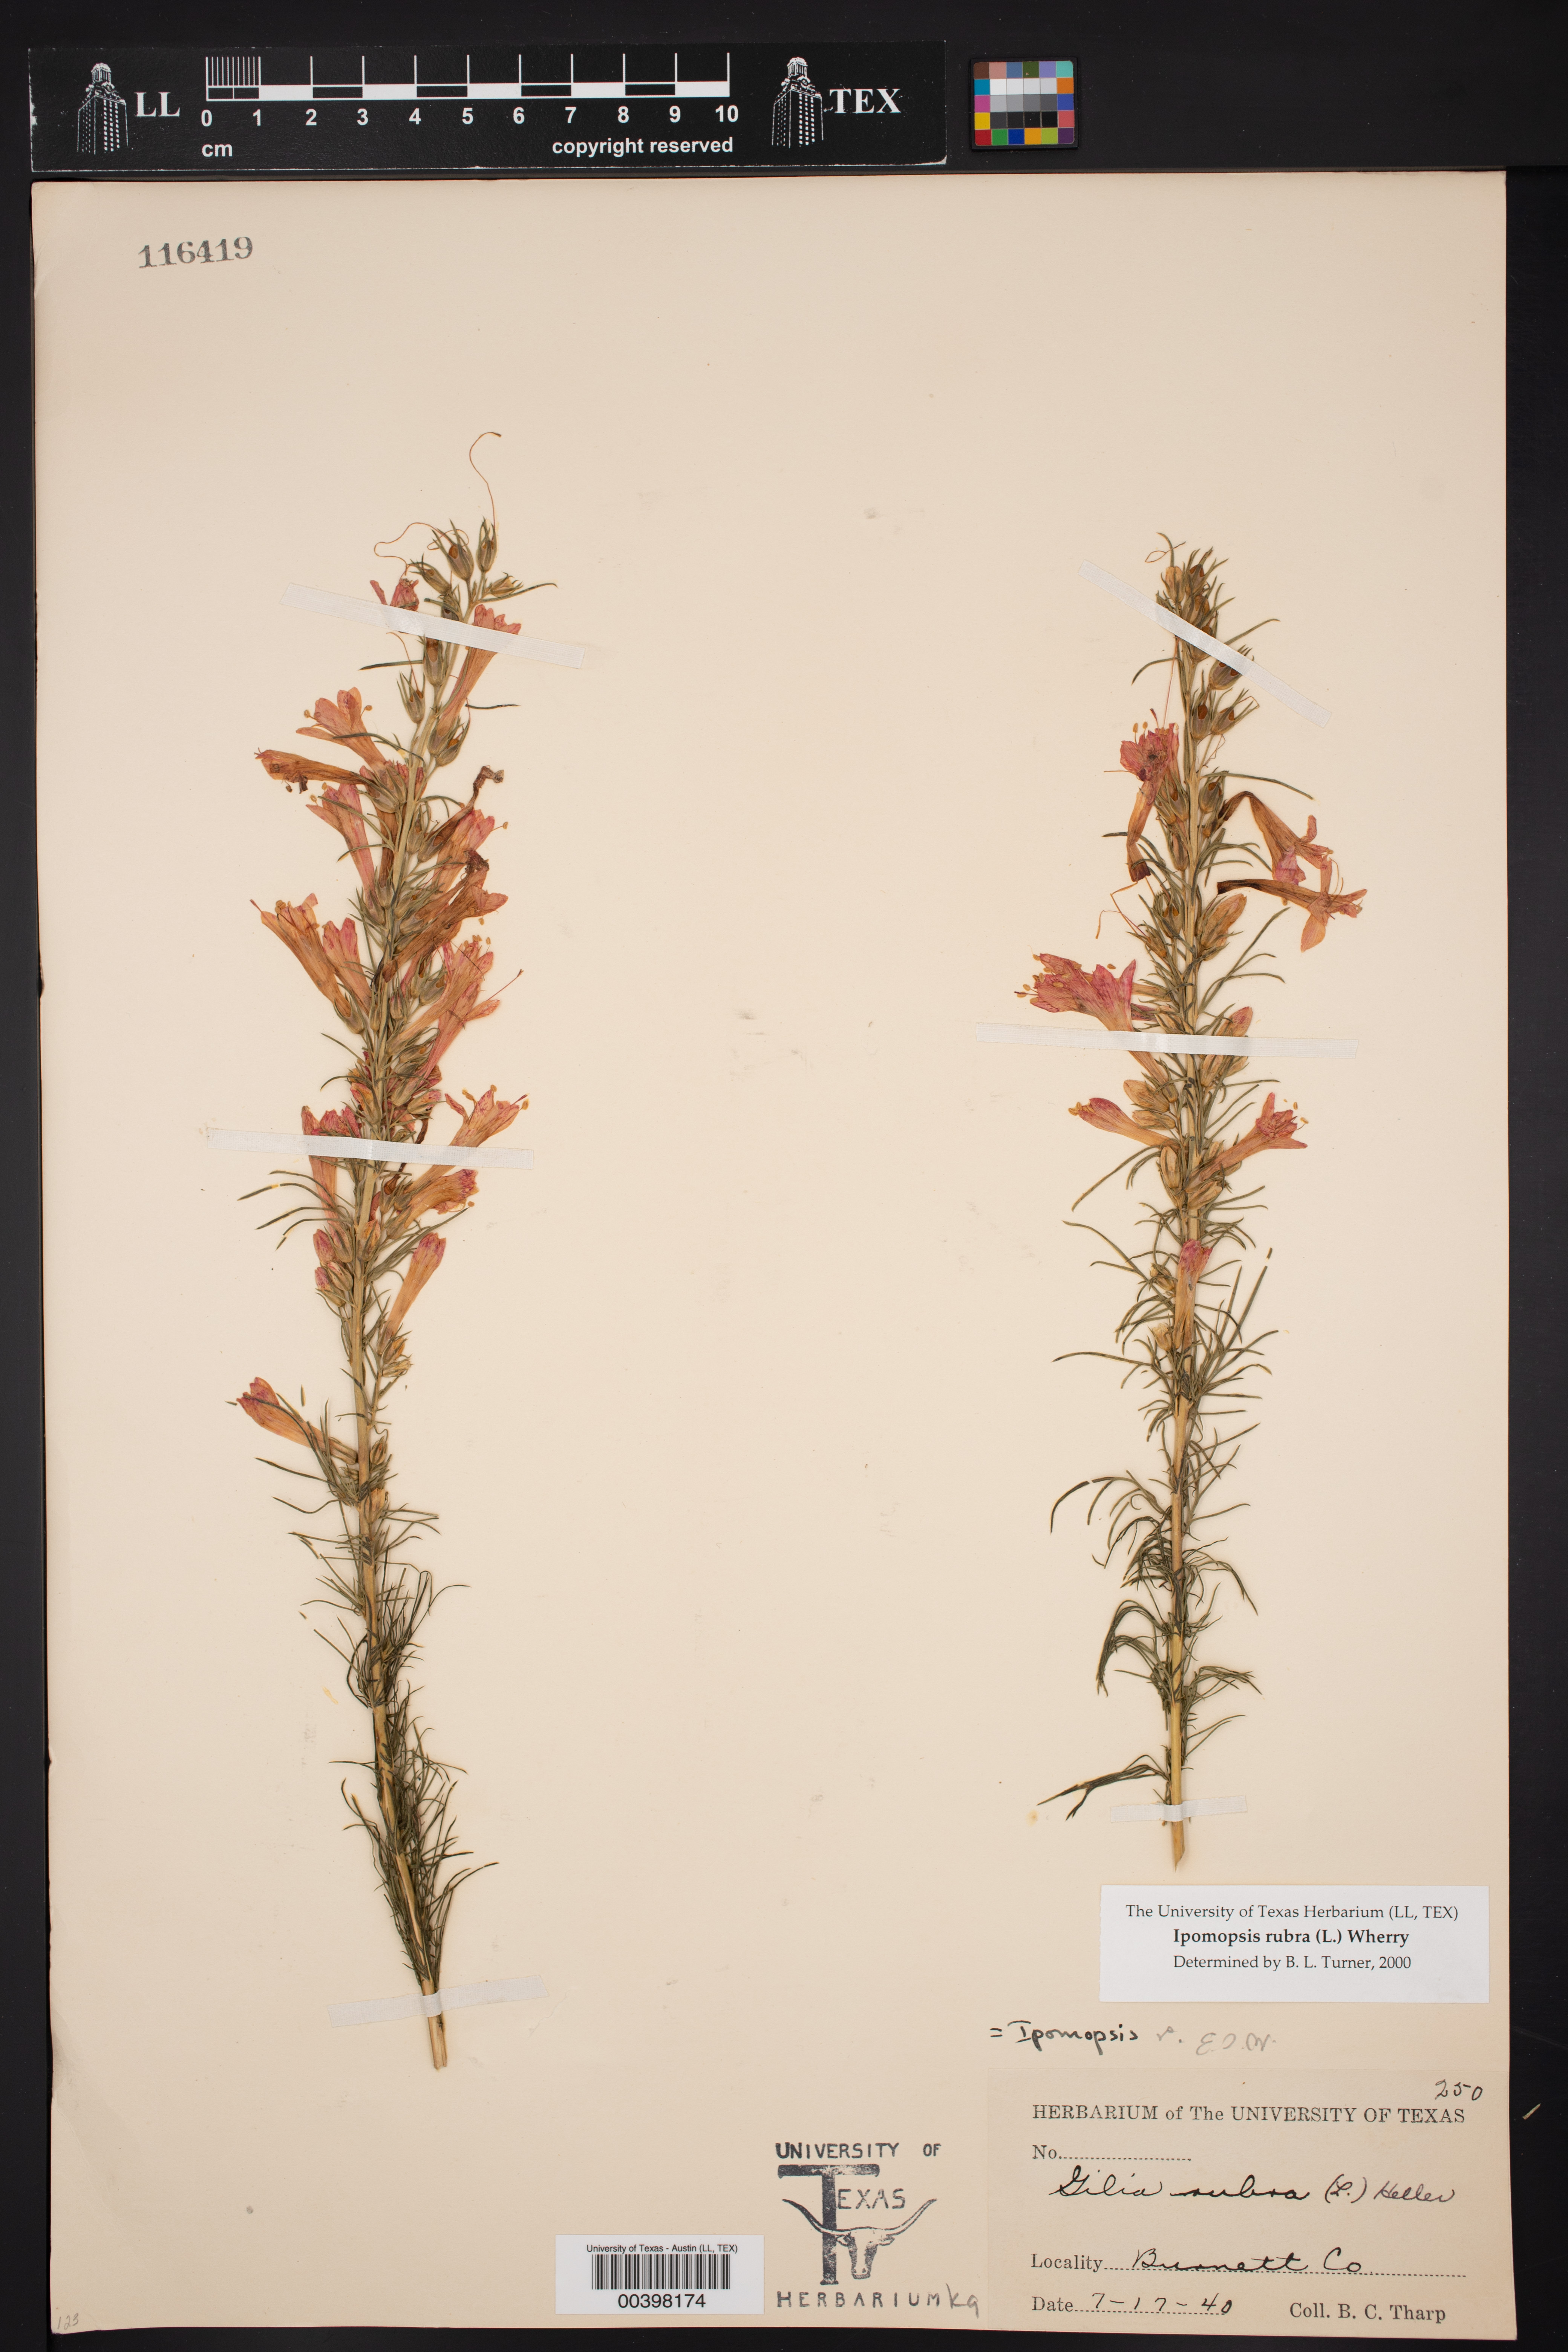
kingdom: Plantae
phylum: Tracheophyta
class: Magnoliopsida
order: Ericales
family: Polemoniaceae
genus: Ipomopsis
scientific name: Ipomopsis rubra
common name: Skyrocket
